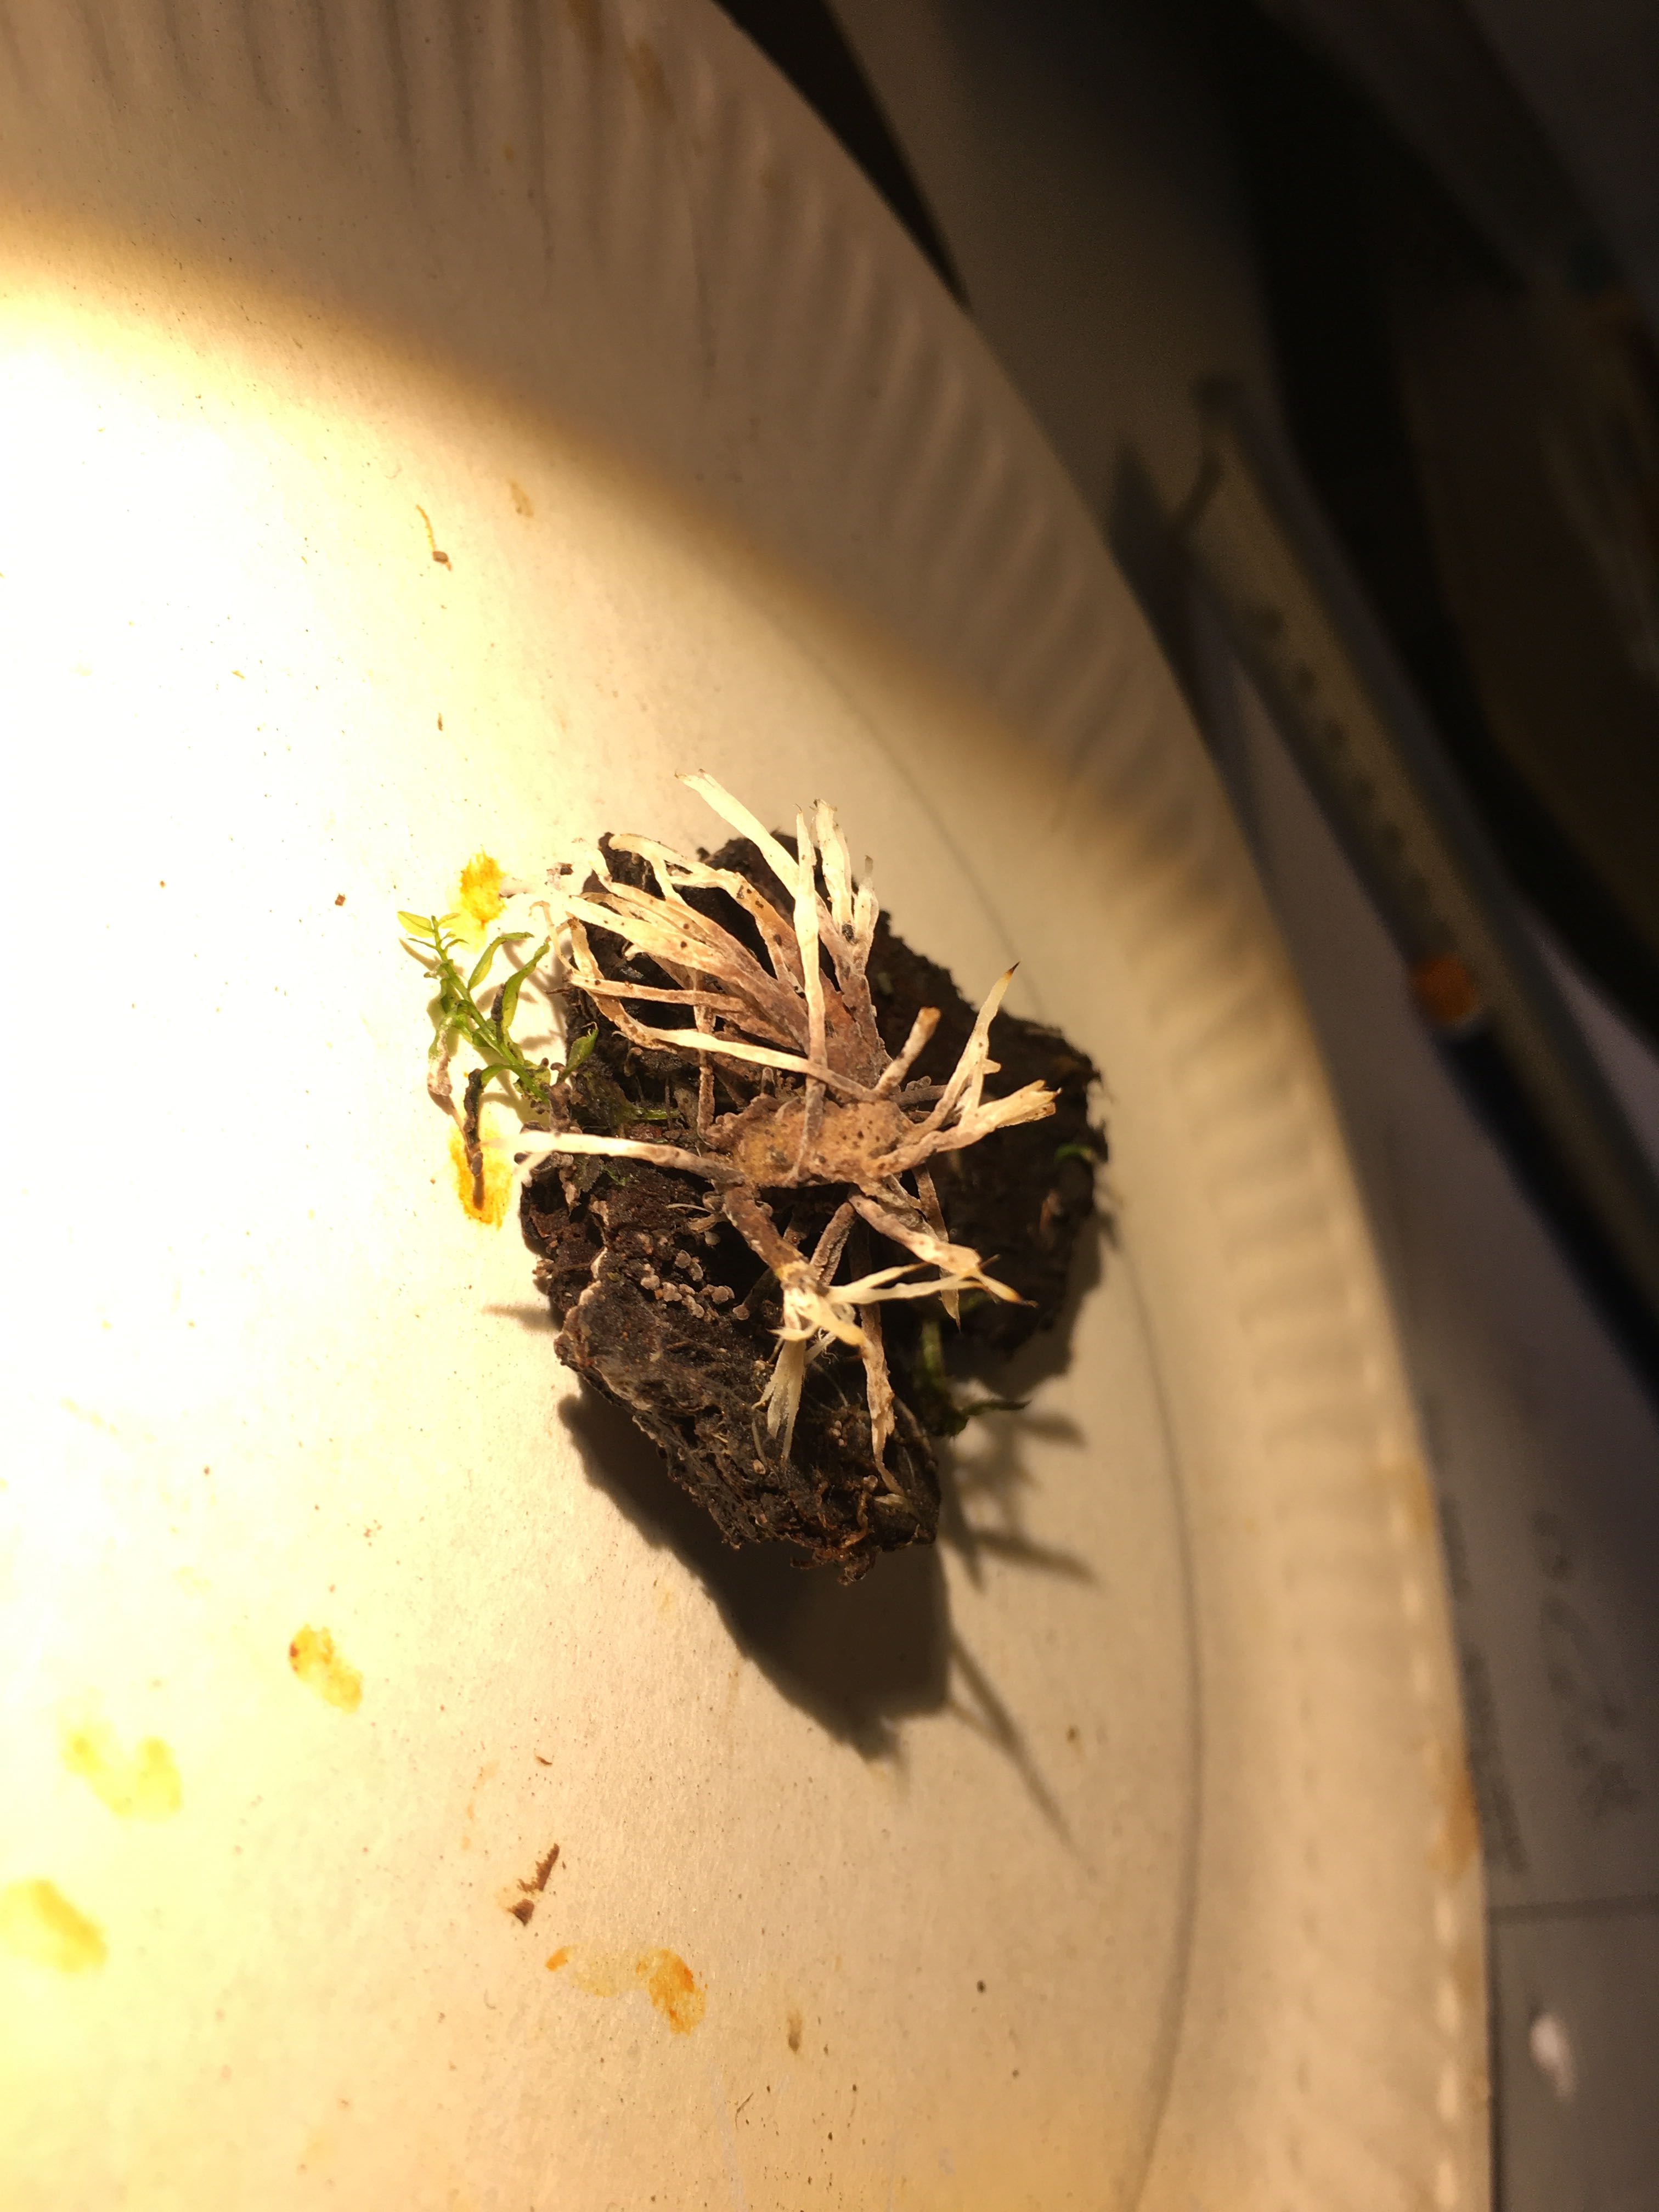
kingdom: Fungi
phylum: Basidiomycota
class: Agaricomycetes
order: Thelephorales
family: Thelephoraceae
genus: Thelephora
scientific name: Thelephora penicillata
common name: fladtrådt frynsesvamp
